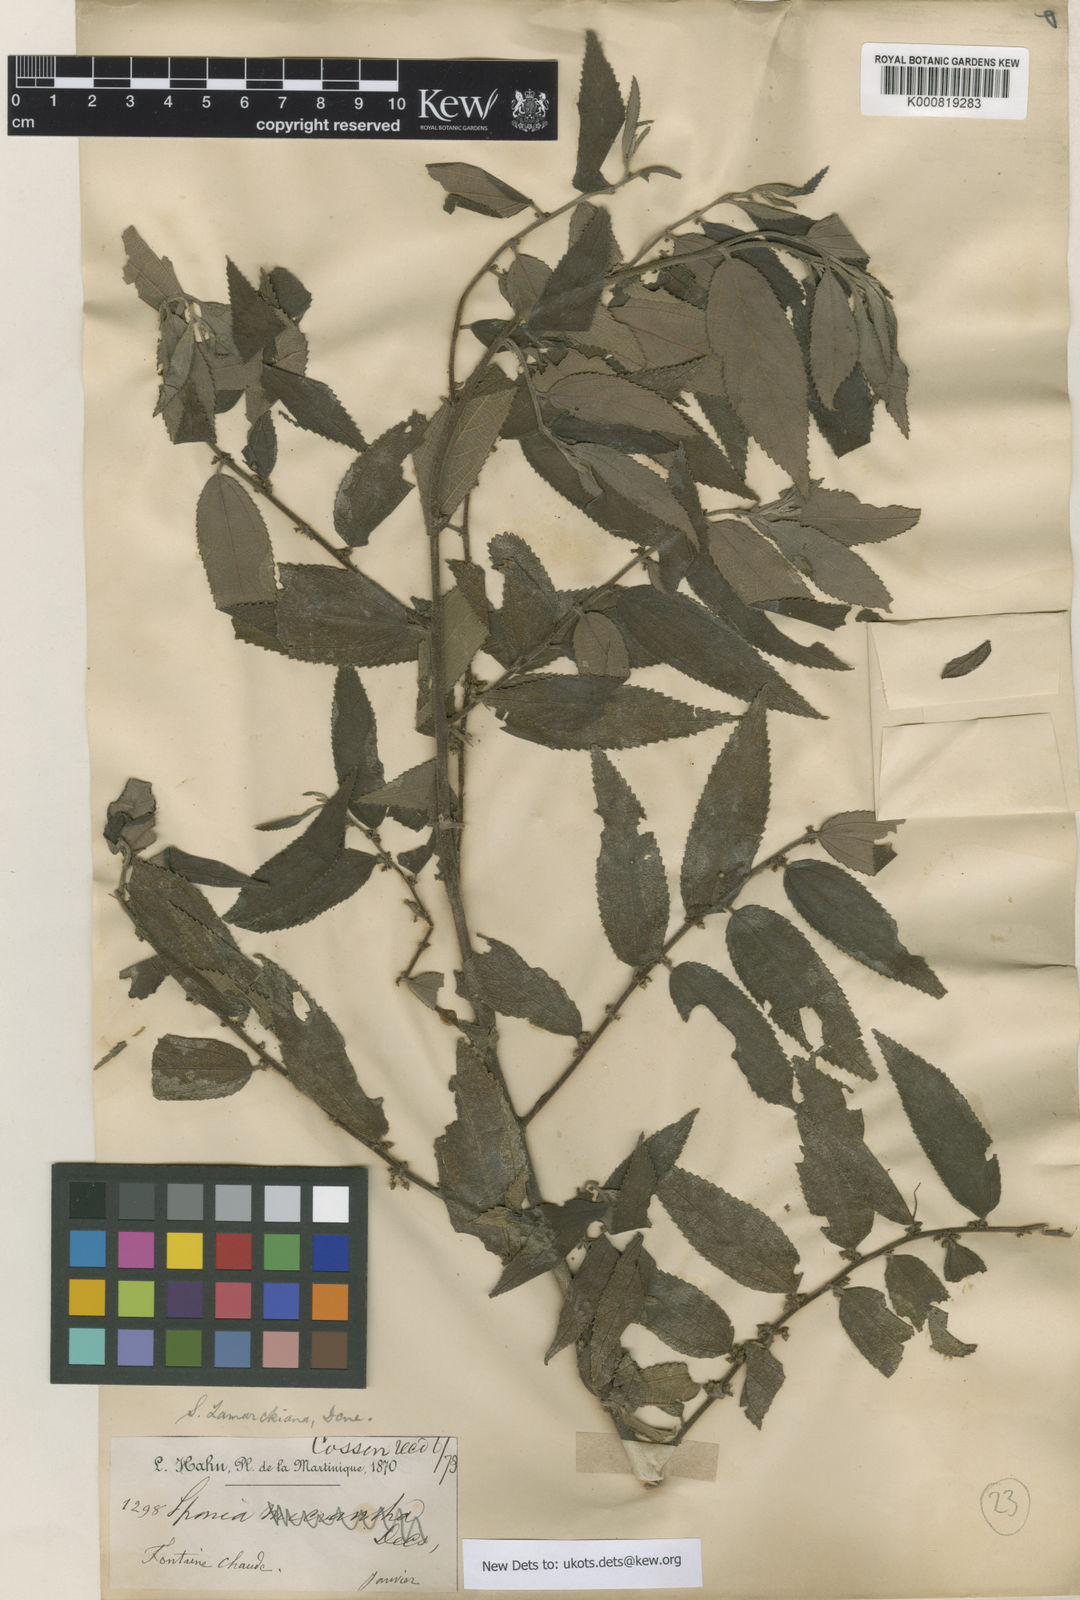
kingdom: Plantae
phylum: Tracheophyta
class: Magnoliopsida
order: Rosales
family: Cannabaceae
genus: Trema
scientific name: Trema lamarckianum
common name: Lamarck's trema
